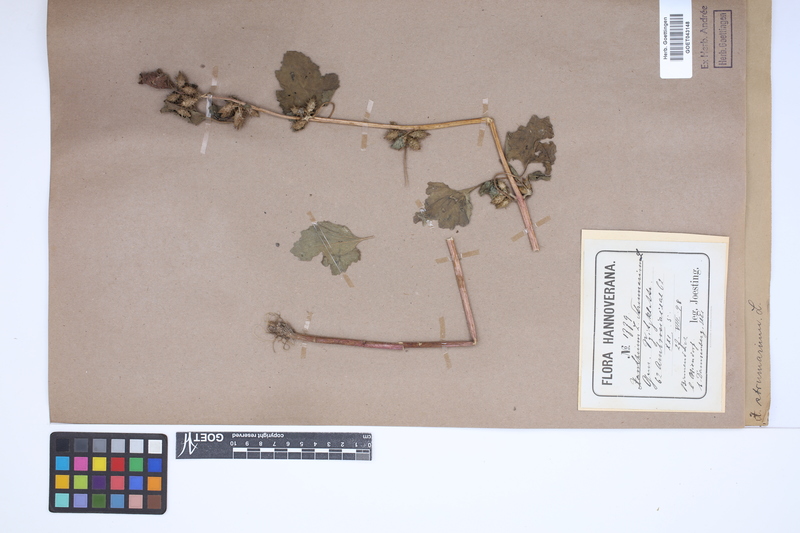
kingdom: Plantae
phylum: Tracheophyta
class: Magnoliopsida
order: Asterales
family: Asteraceae
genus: Xanthium
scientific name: Xanthium strumarium
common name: Rough cocklebur
